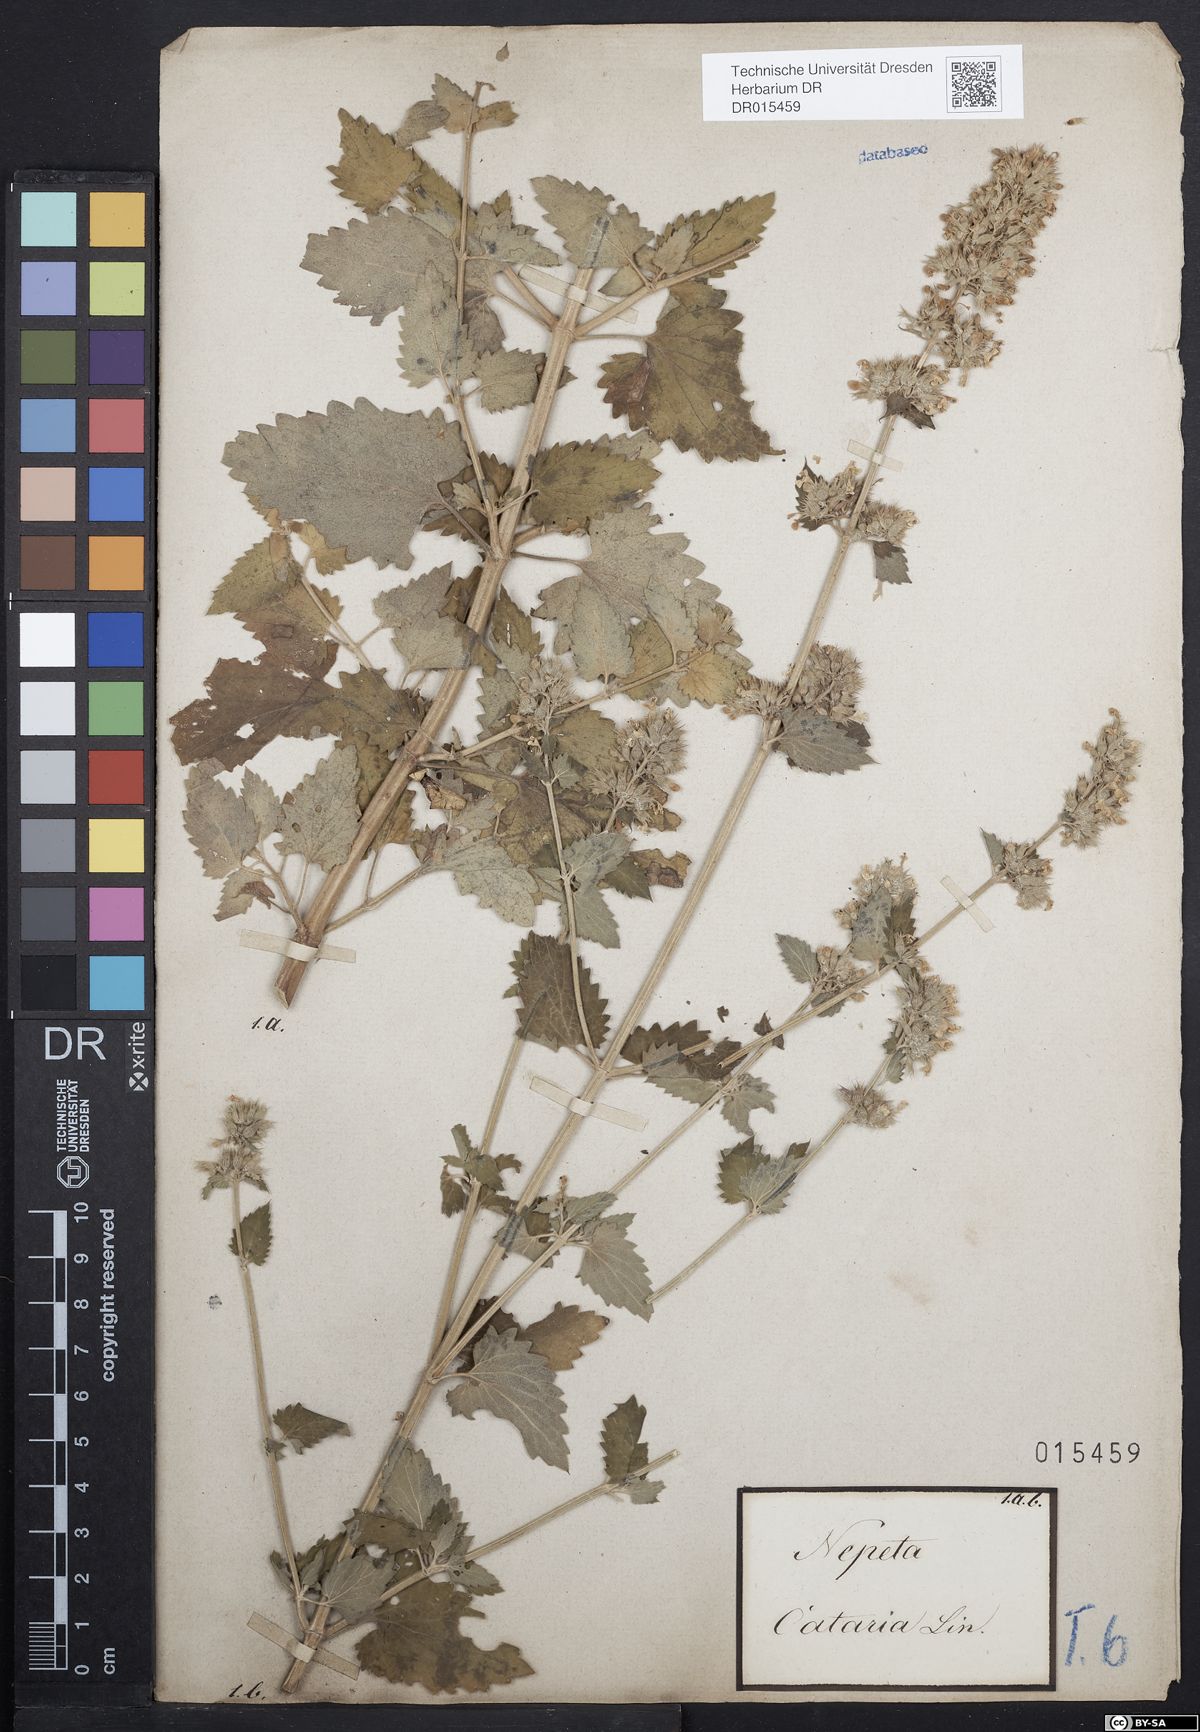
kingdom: Plantae
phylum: Tracheophyta
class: Magnoliopsida
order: Lamiales
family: Lamiaceae
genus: Nepeta
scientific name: Nepeta cataria
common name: Catnip
